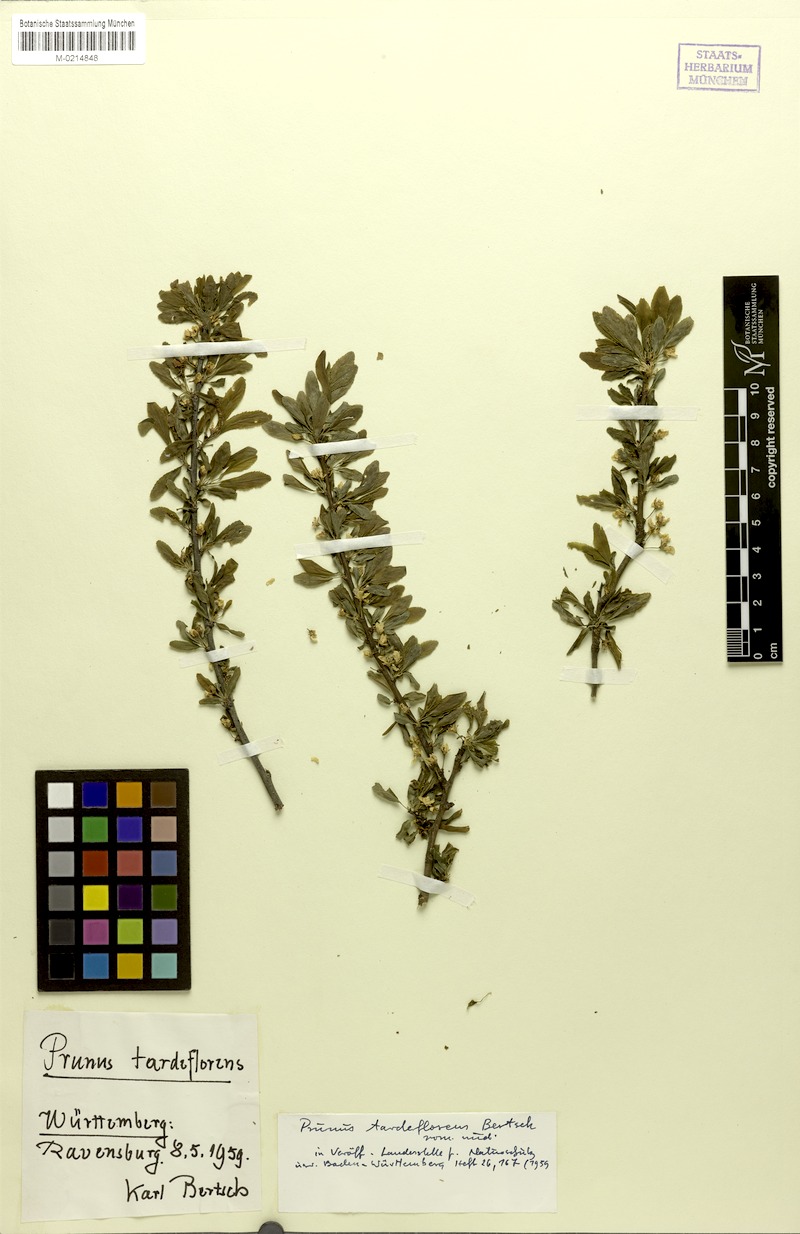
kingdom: Plantae
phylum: Tracheophyta
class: Magnoliopsida
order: Rosales
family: Rosaceae
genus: Prunus
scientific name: Prunus spinosa
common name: Blackthorn
